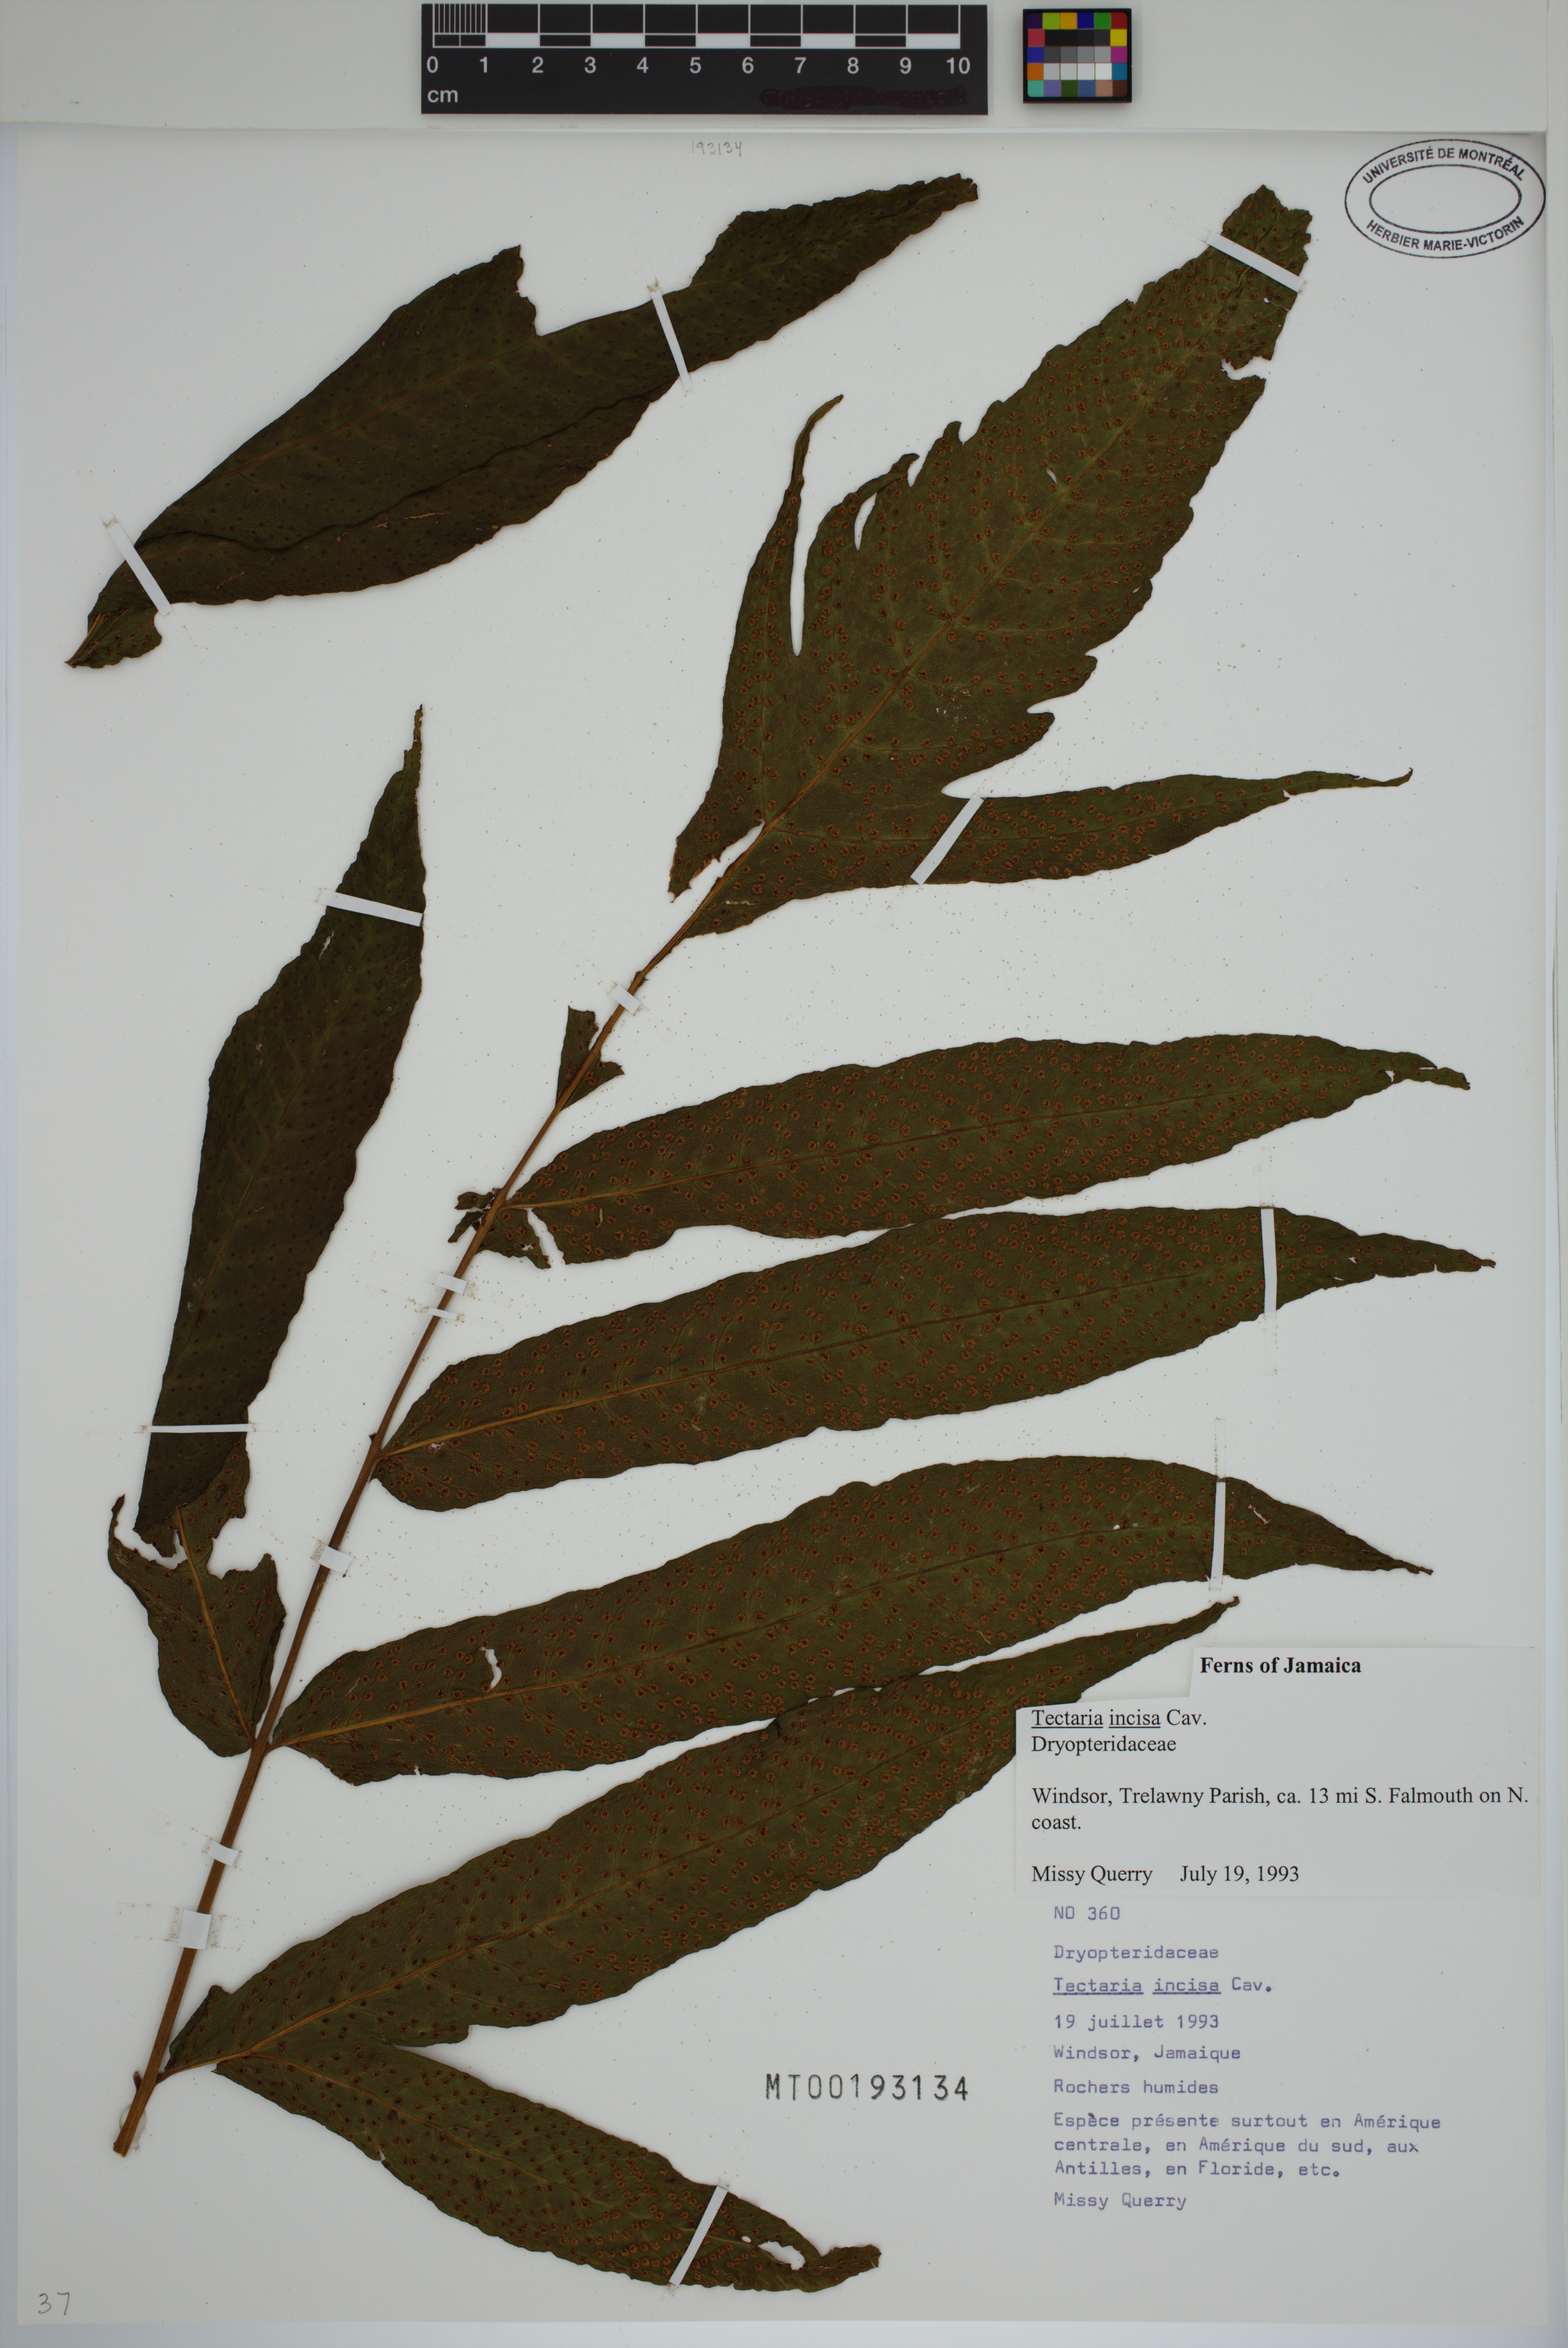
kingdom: Plantae
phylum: Tracheophyta
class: Polypodiopsida
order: Polypodiales
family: Tectariaceae
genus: Tectaria
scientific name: Tectaria incisa
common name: Incised halberd fern
